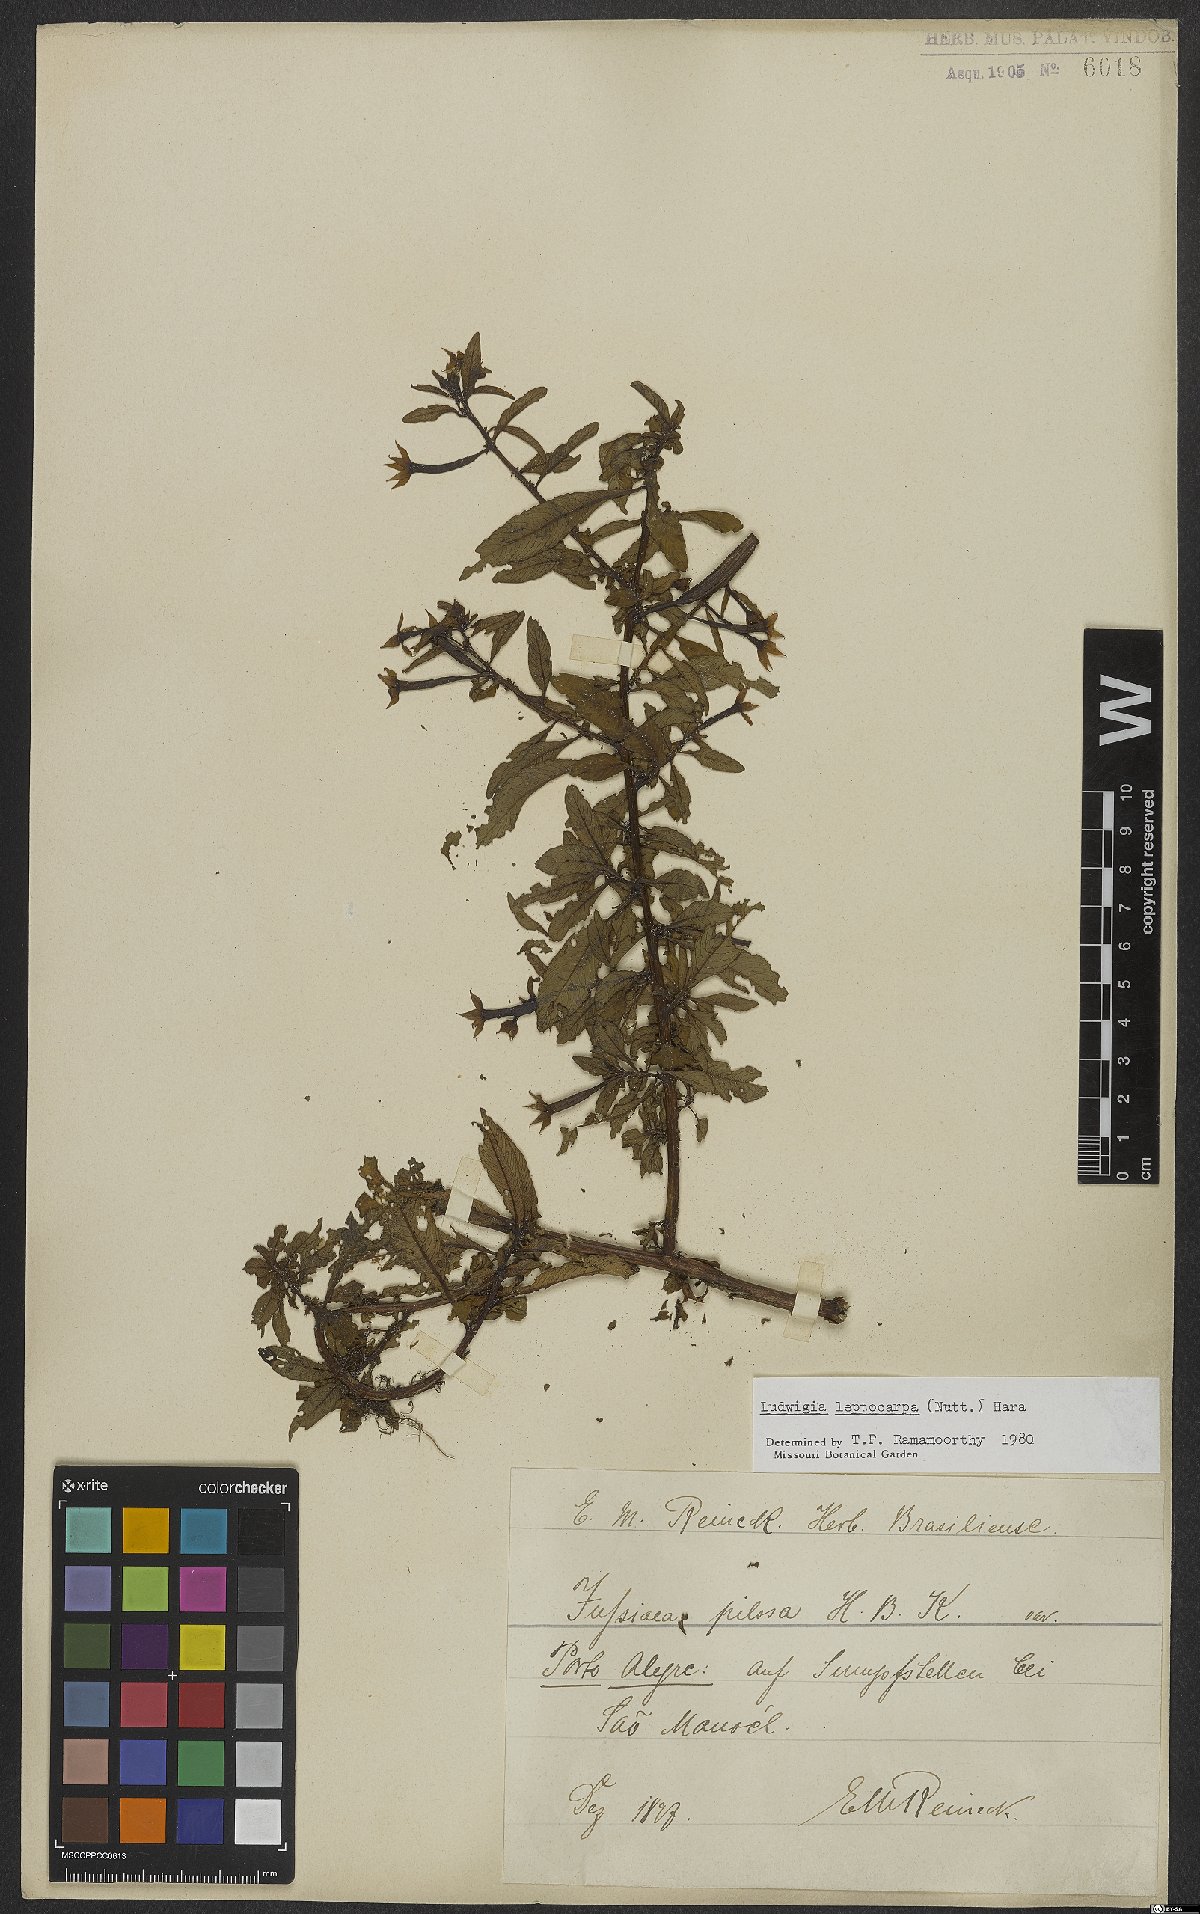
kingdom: Plantae
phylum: Tracheophyta
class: Magnoliopsida
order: Myrtales
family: Onagraceae
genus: Ludwigia
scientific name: Ludwigia leptocarpa
